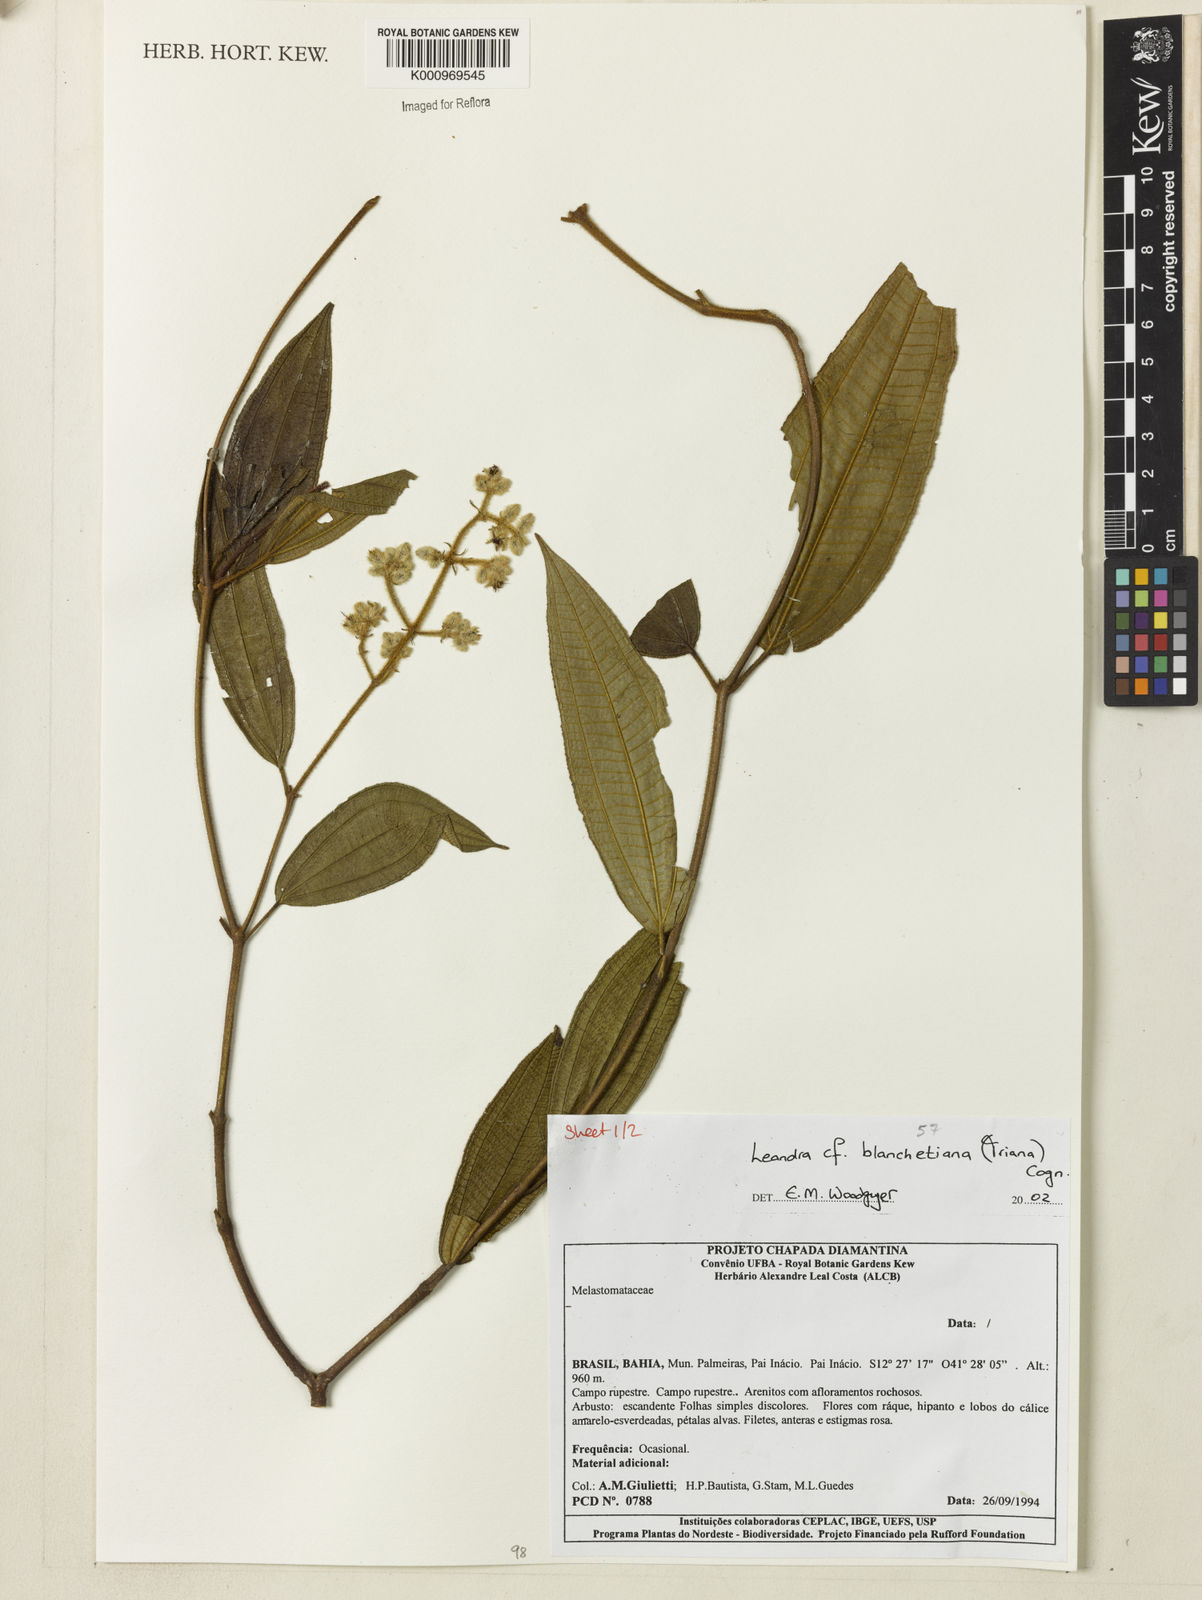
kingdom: Plantae
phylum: Tracheophyta
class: Magnoliopsida
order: Myrtales
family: Melastomataceae
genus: Miconia
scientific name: Miconia leablanchetiana
